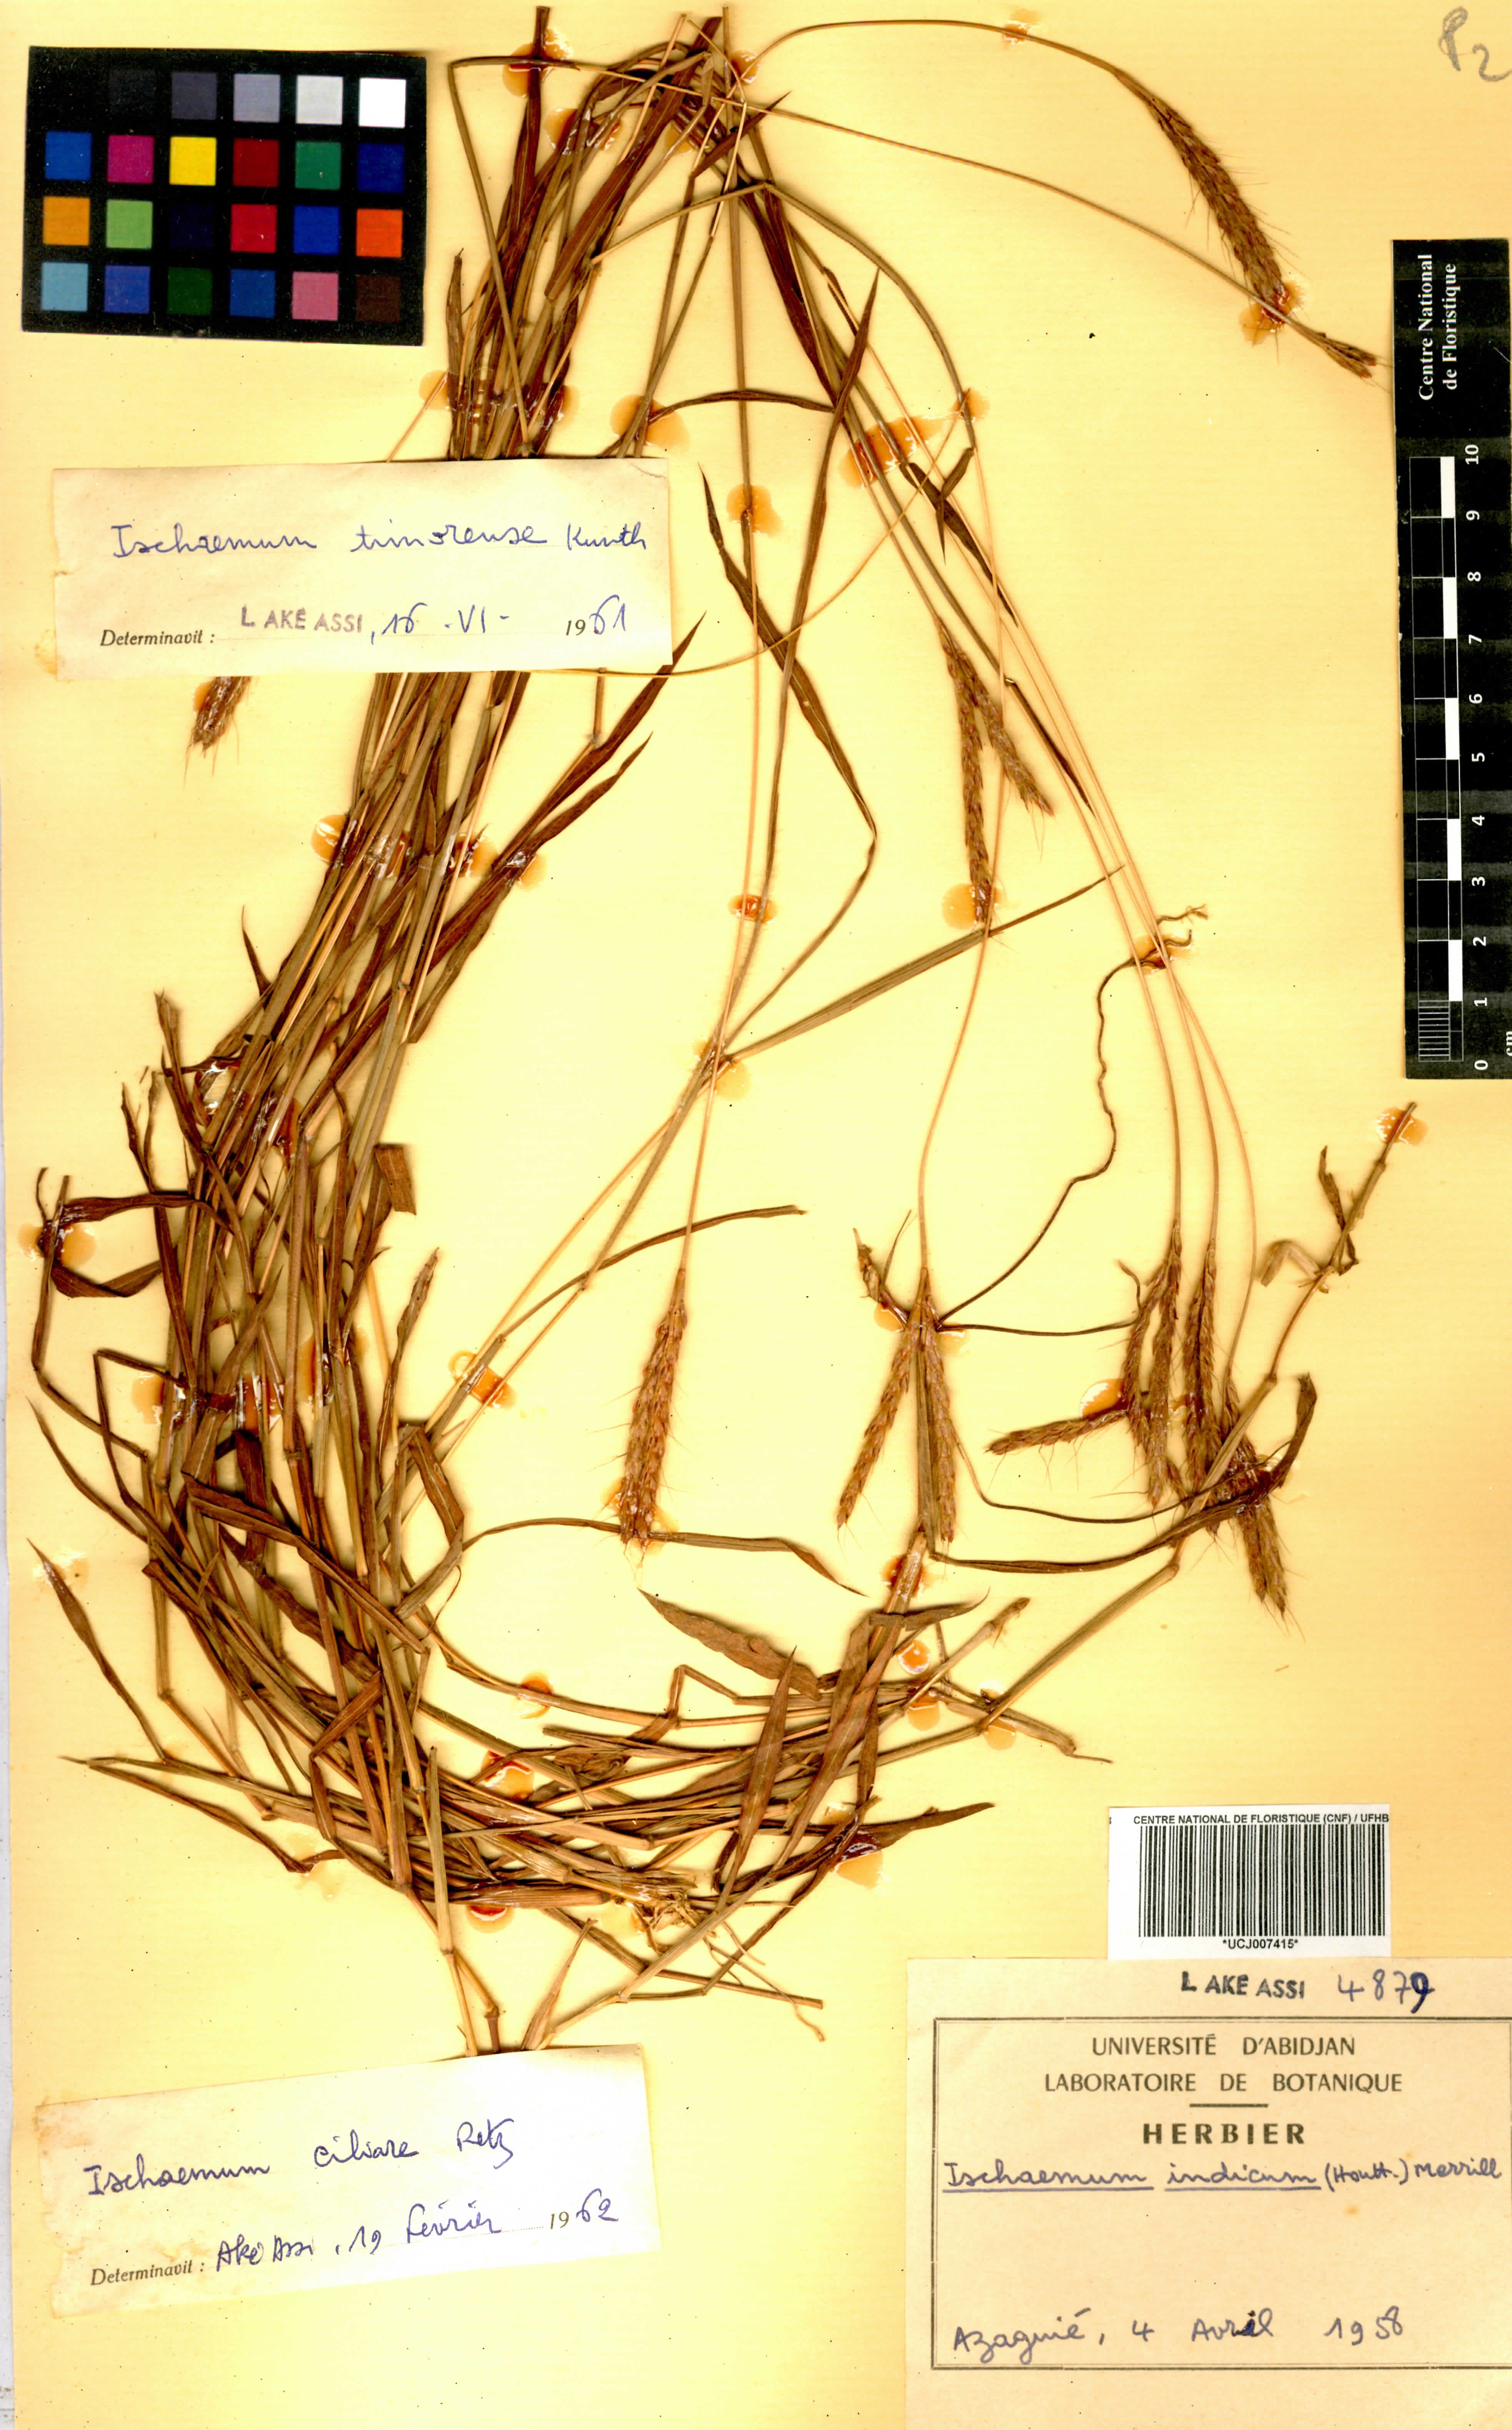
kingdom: Plantae
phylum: Tracheophyta
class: Liliopsida
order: Poales
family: Poaceae
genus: Polytrias
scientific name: Polytrias indica
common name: Indian murainagrass
